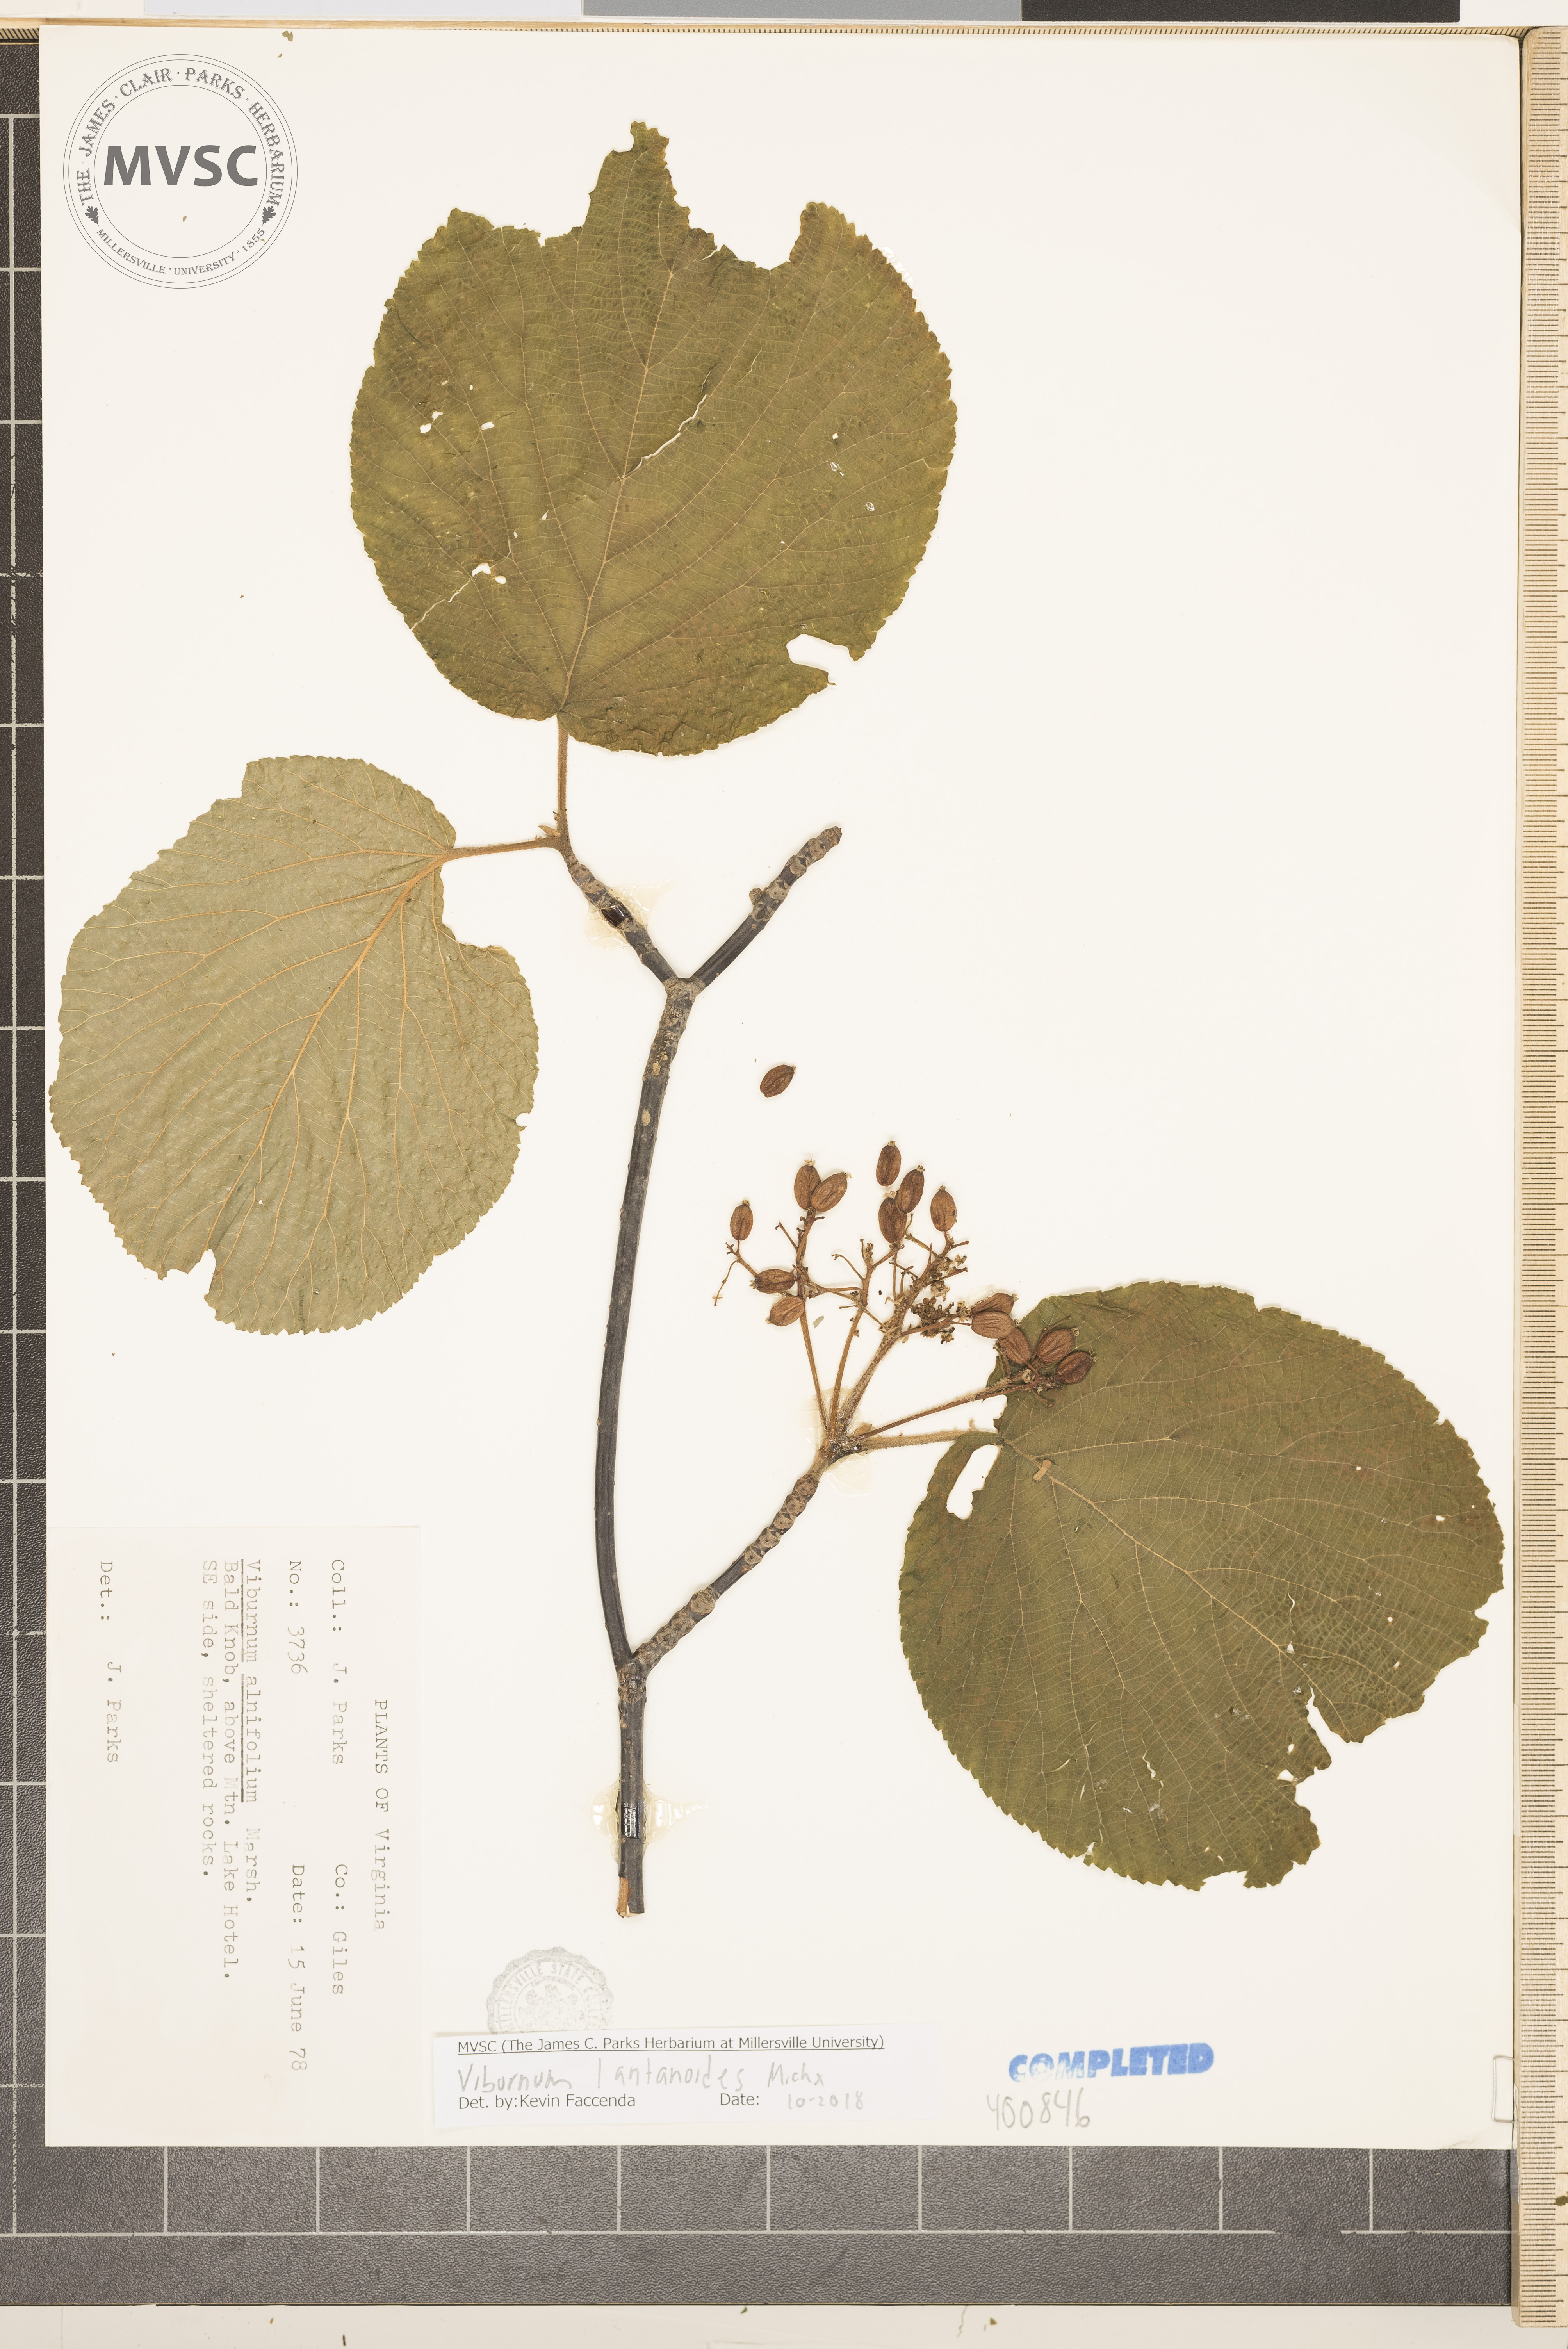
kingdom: Plantae
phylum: Tracheophyta
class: Magnoliopsida
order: Dipsacales
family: Viburnaceae
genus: Viburnum
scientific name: Viburnum lantanoides
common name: hobblebush
